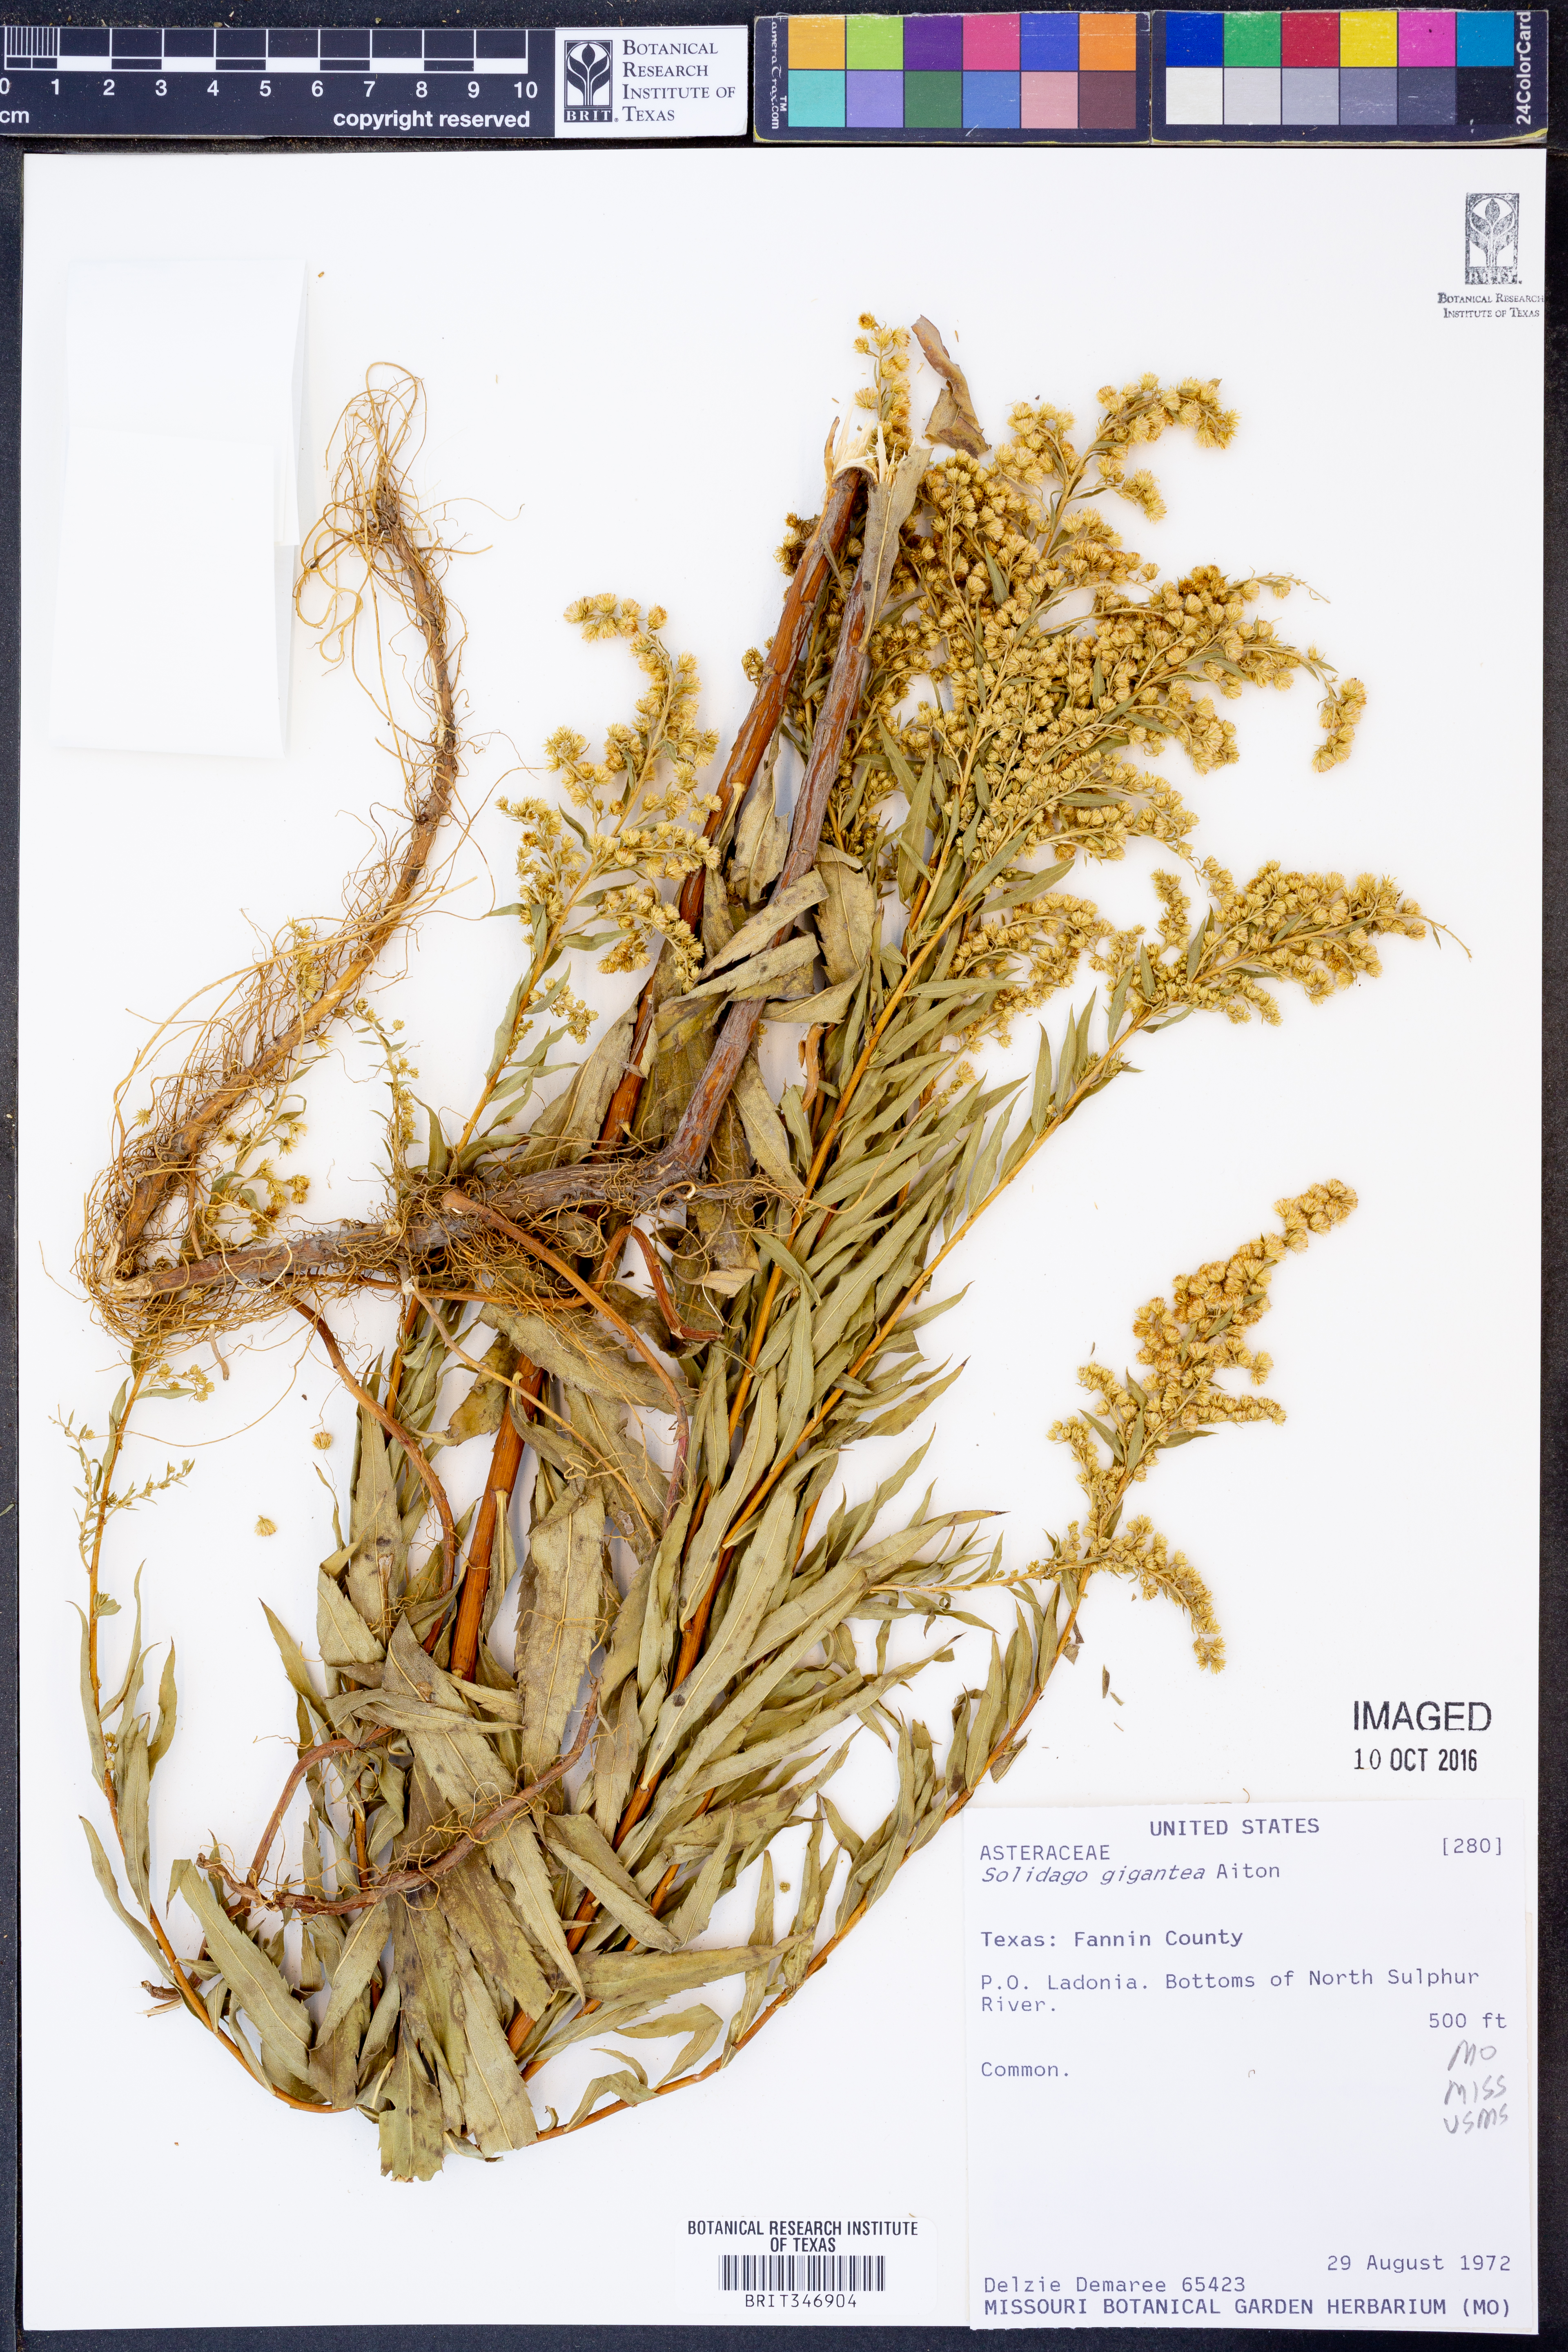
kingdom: Plantae
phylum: Tracheophyta
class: Magnoliopsida
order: Asterales
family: Asteraceae
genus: Solidago
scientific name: Solidago gigantea
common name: Giant goldenrod
